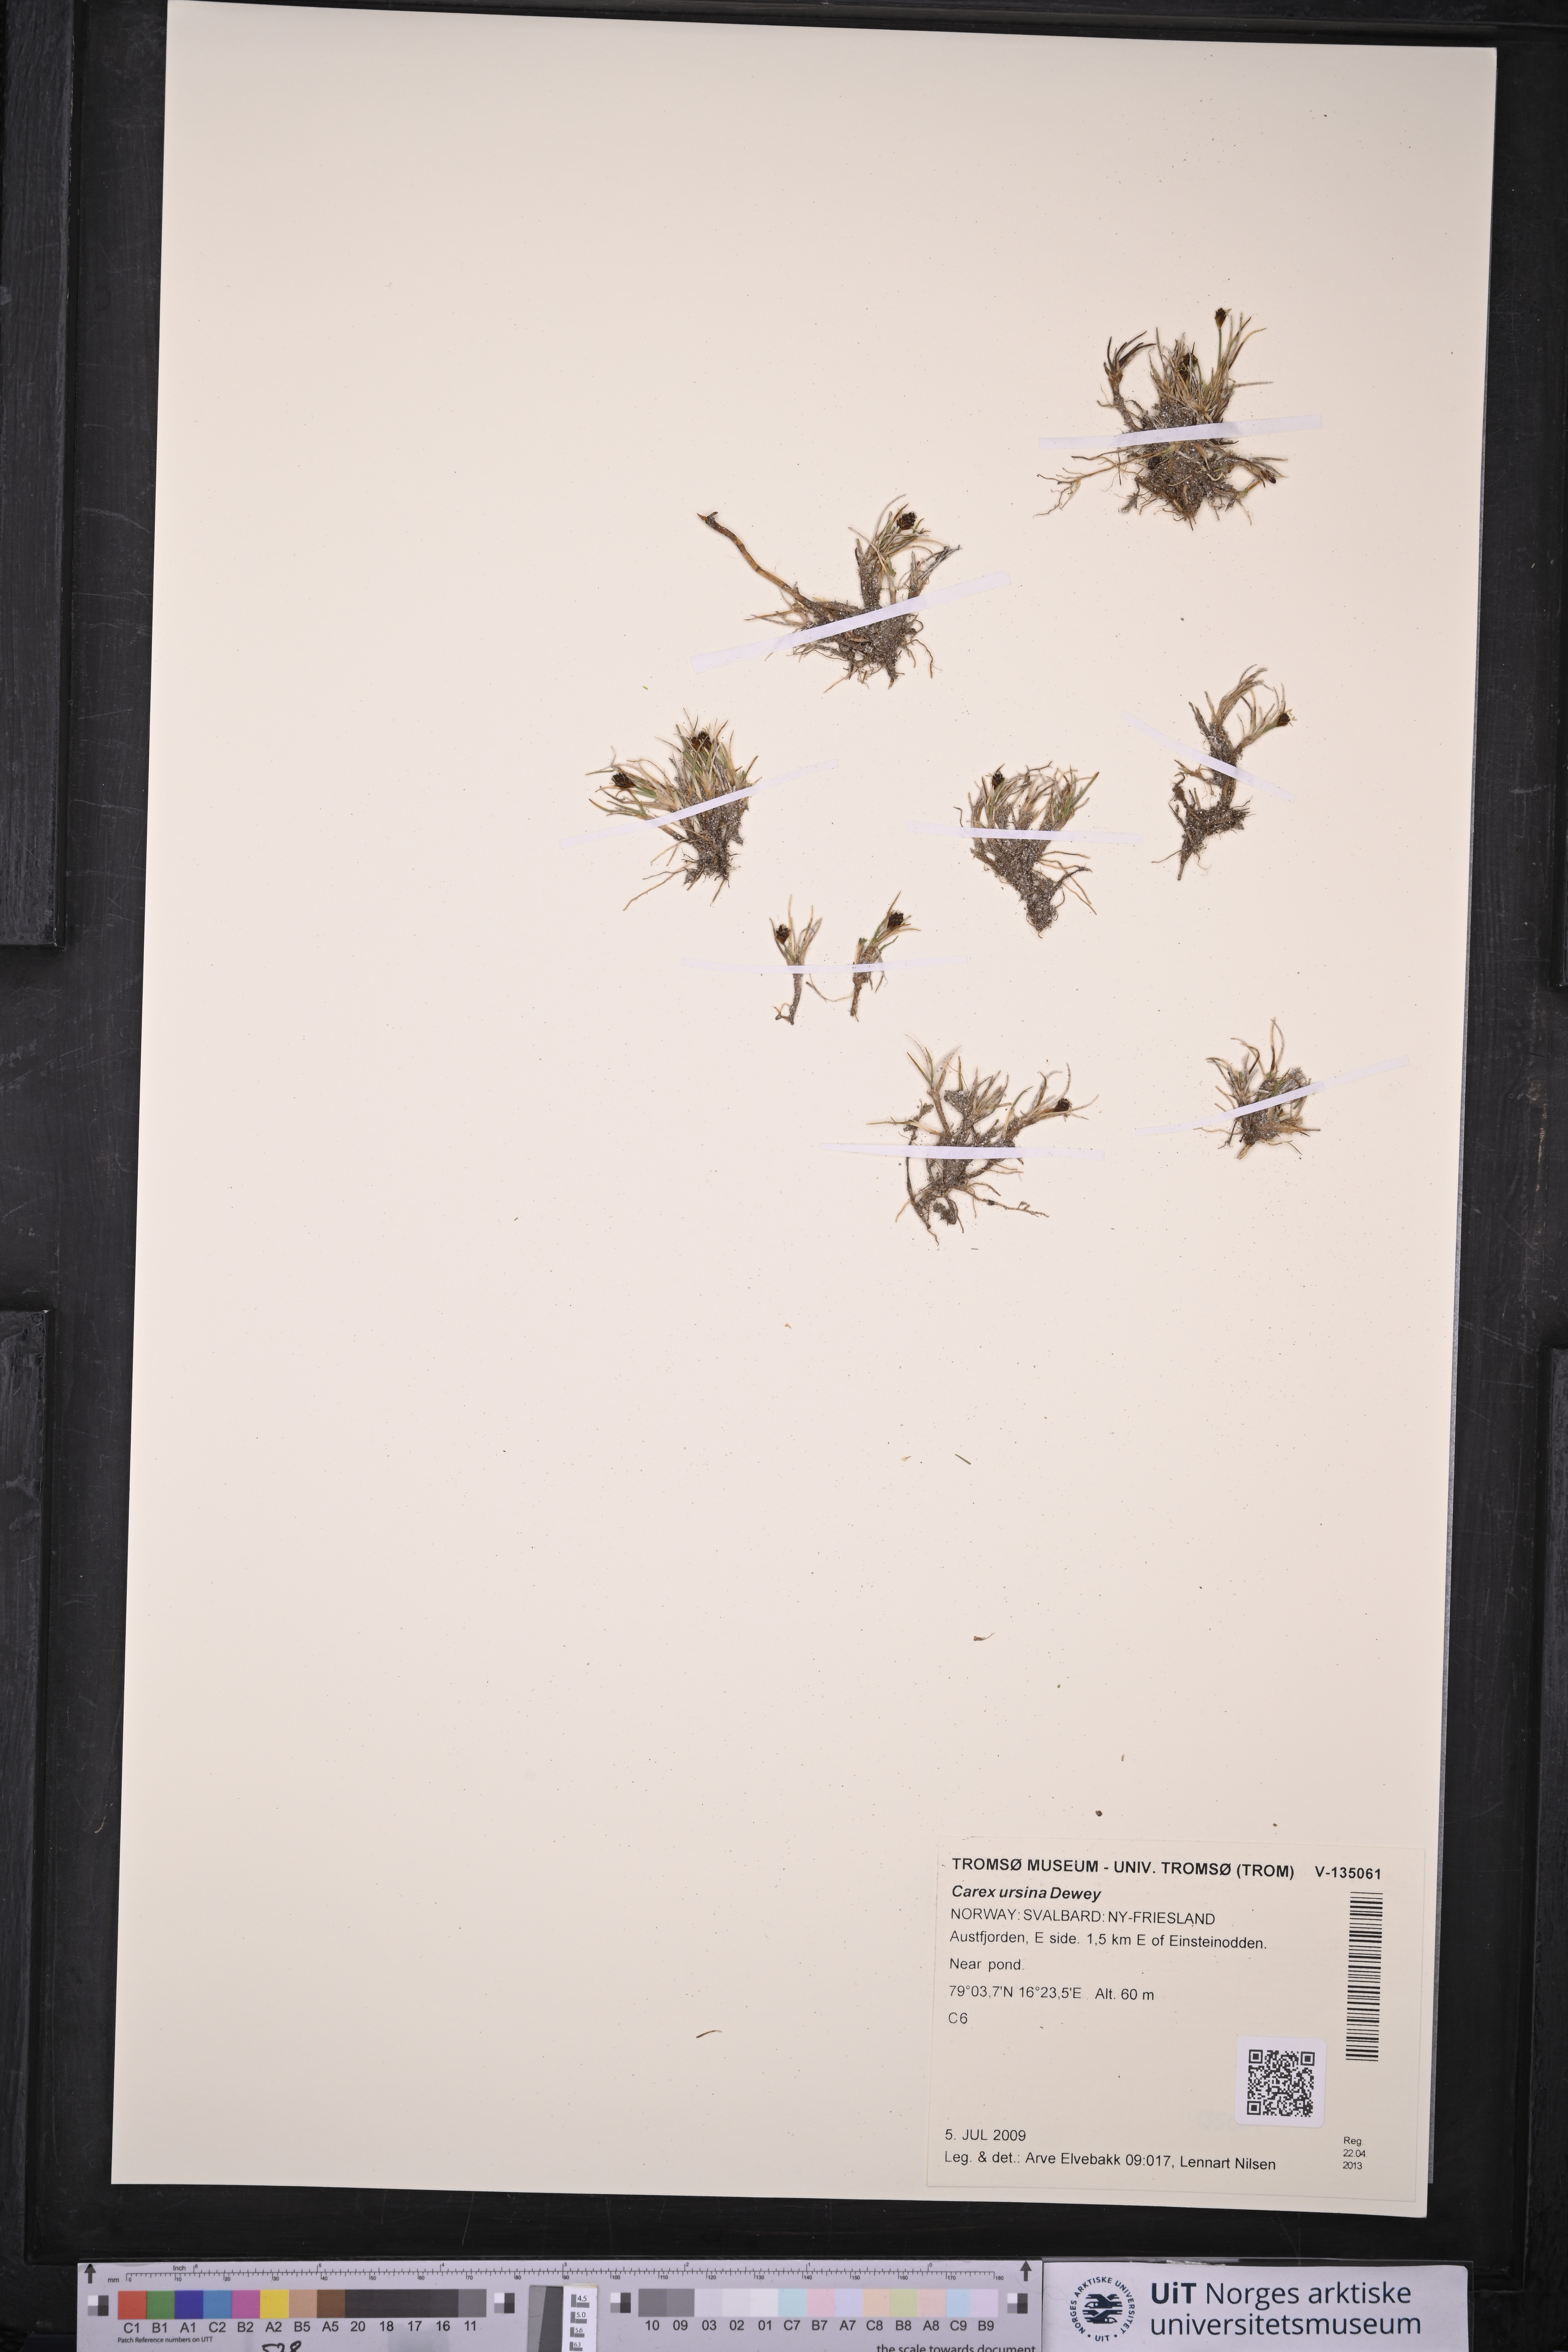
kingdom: Plantae
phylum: Tracheophyta
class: Liliopsida
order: Poales
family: Cyperaceae
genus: Carex
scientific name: Carex ursina
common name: Bear sedge
